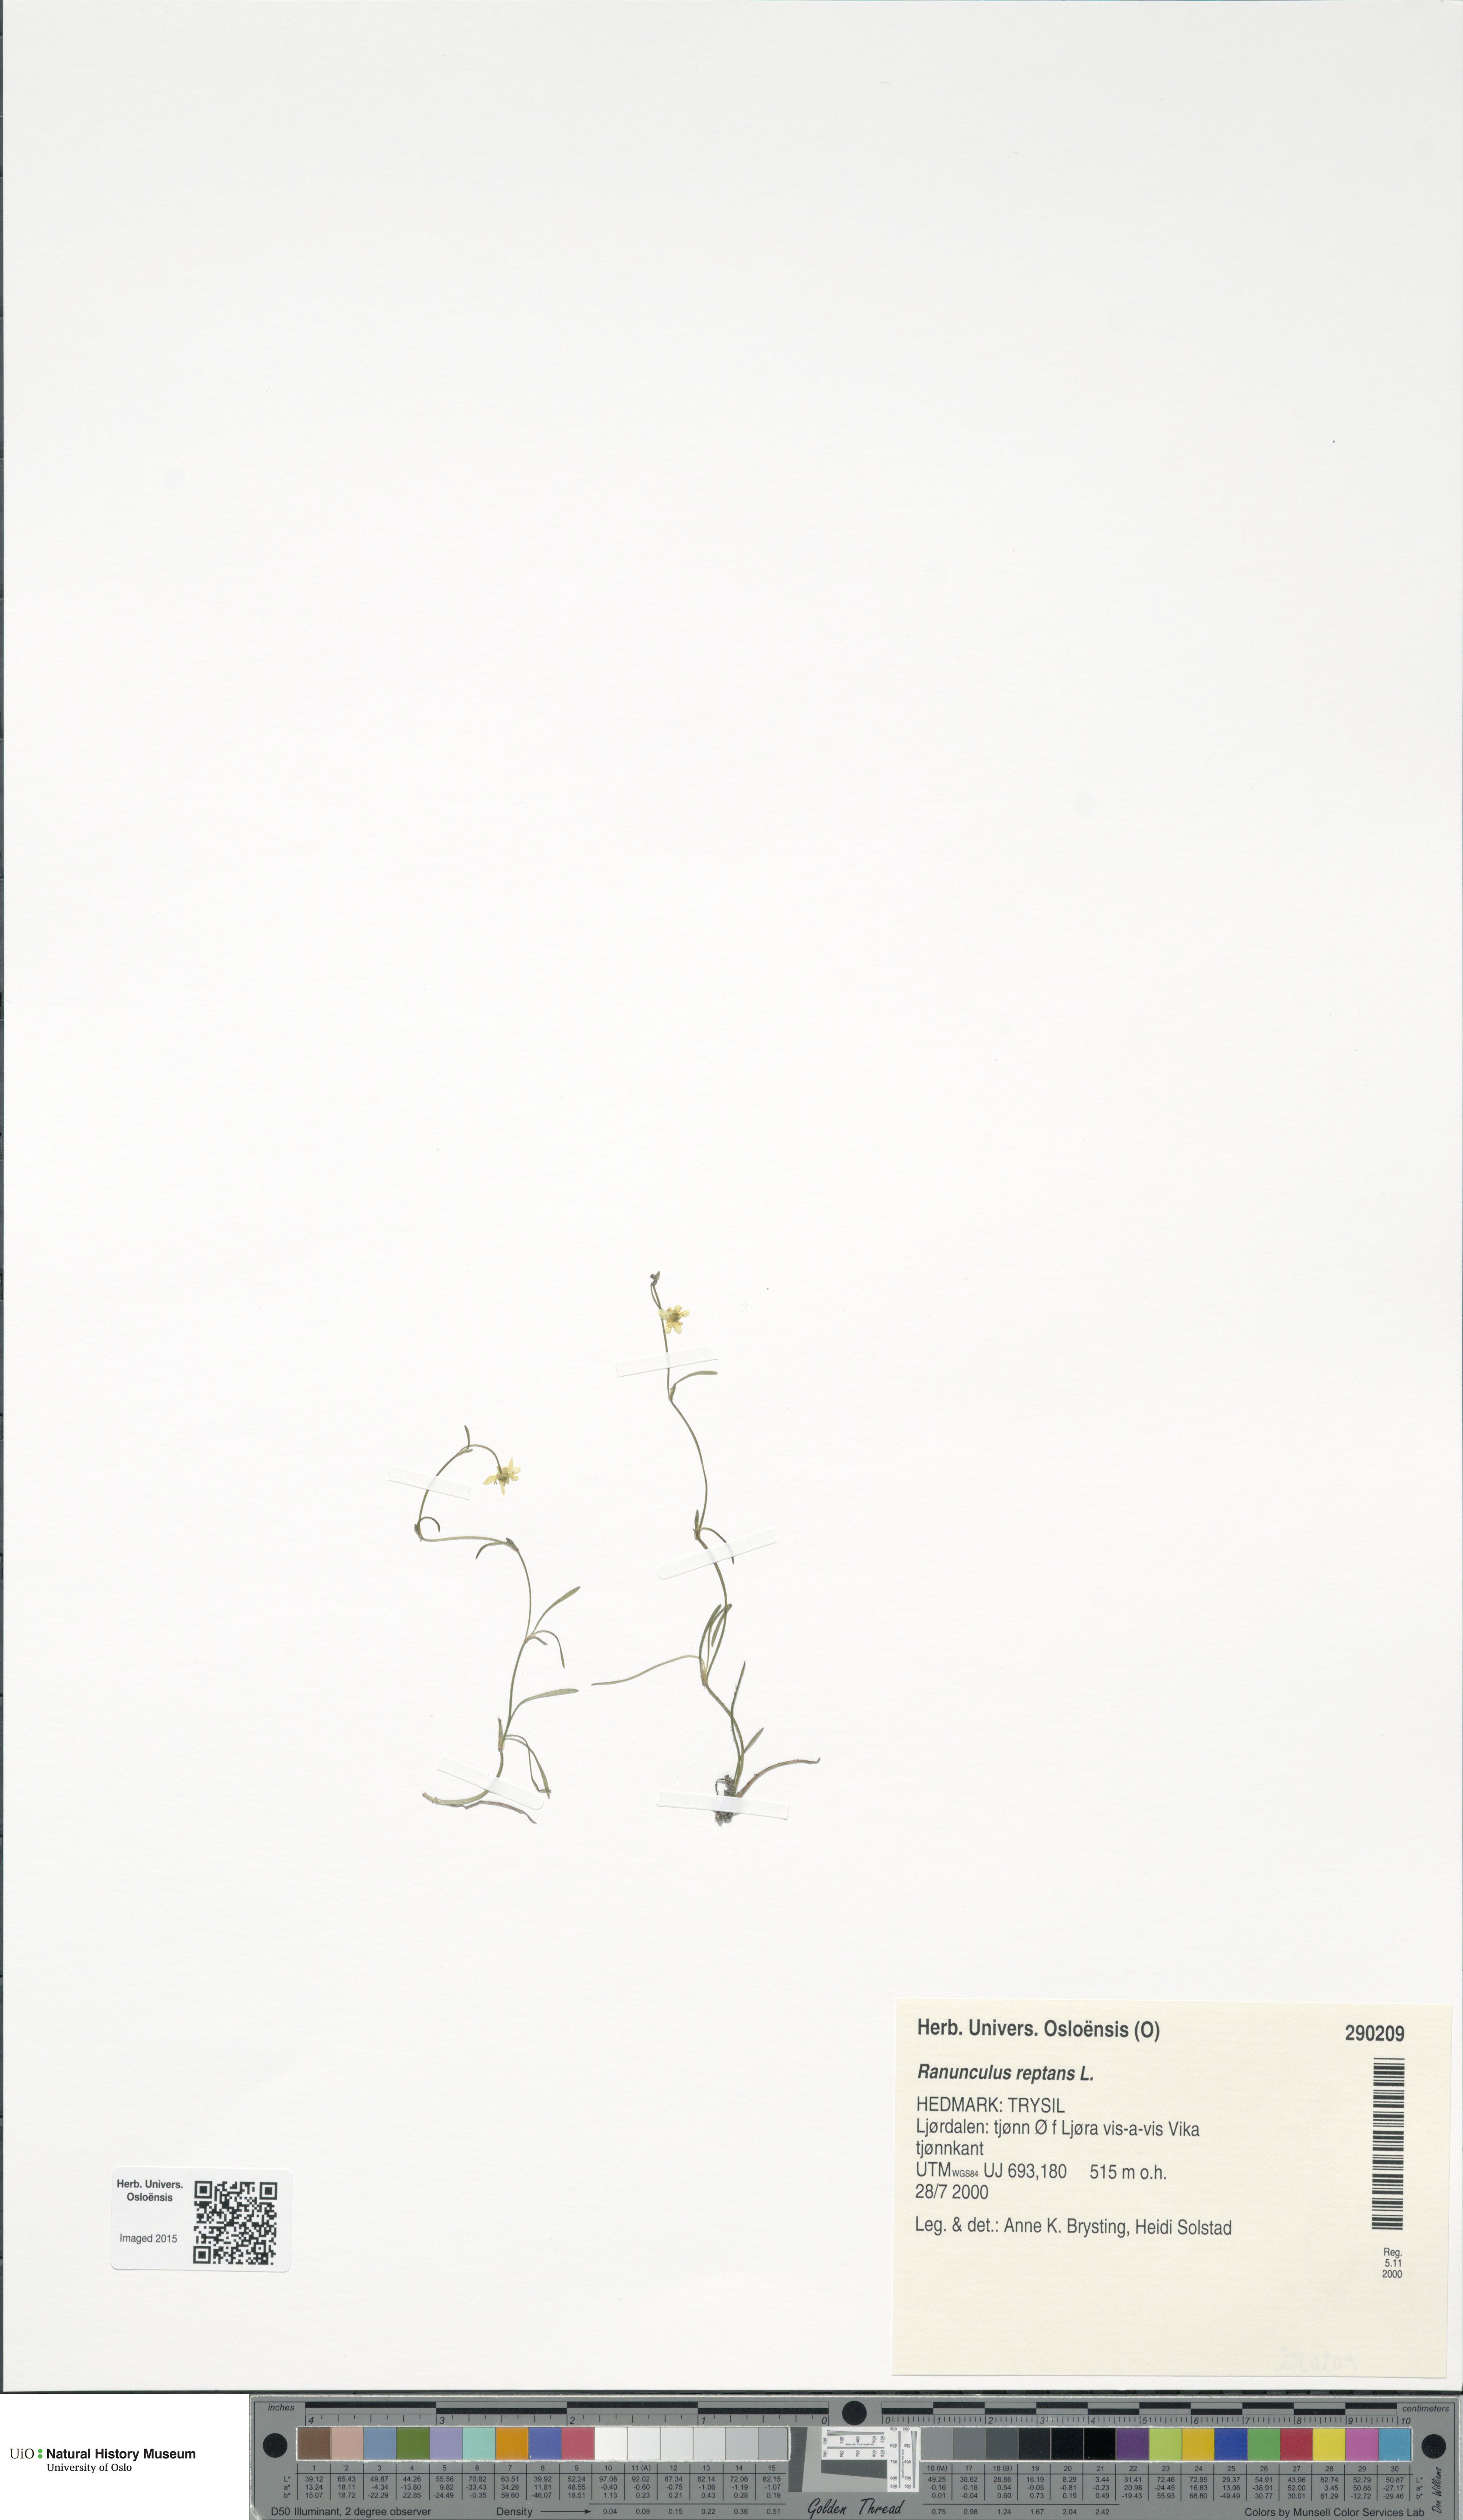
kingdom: Plantae
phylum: Tracheophyta
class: Magnoliopsida
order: Ranunculales
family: Ranunculaceae
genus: Ranunculus
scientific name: Ranunculus reptans
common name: Creeping spearwort
